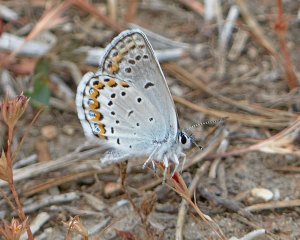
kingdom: Animalia
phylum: Arthropoda
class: Insecta
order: Lepidoptera
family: Lycaenidae
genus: Lycaeides
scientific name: Lycaeides idas
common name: Northern Blue
